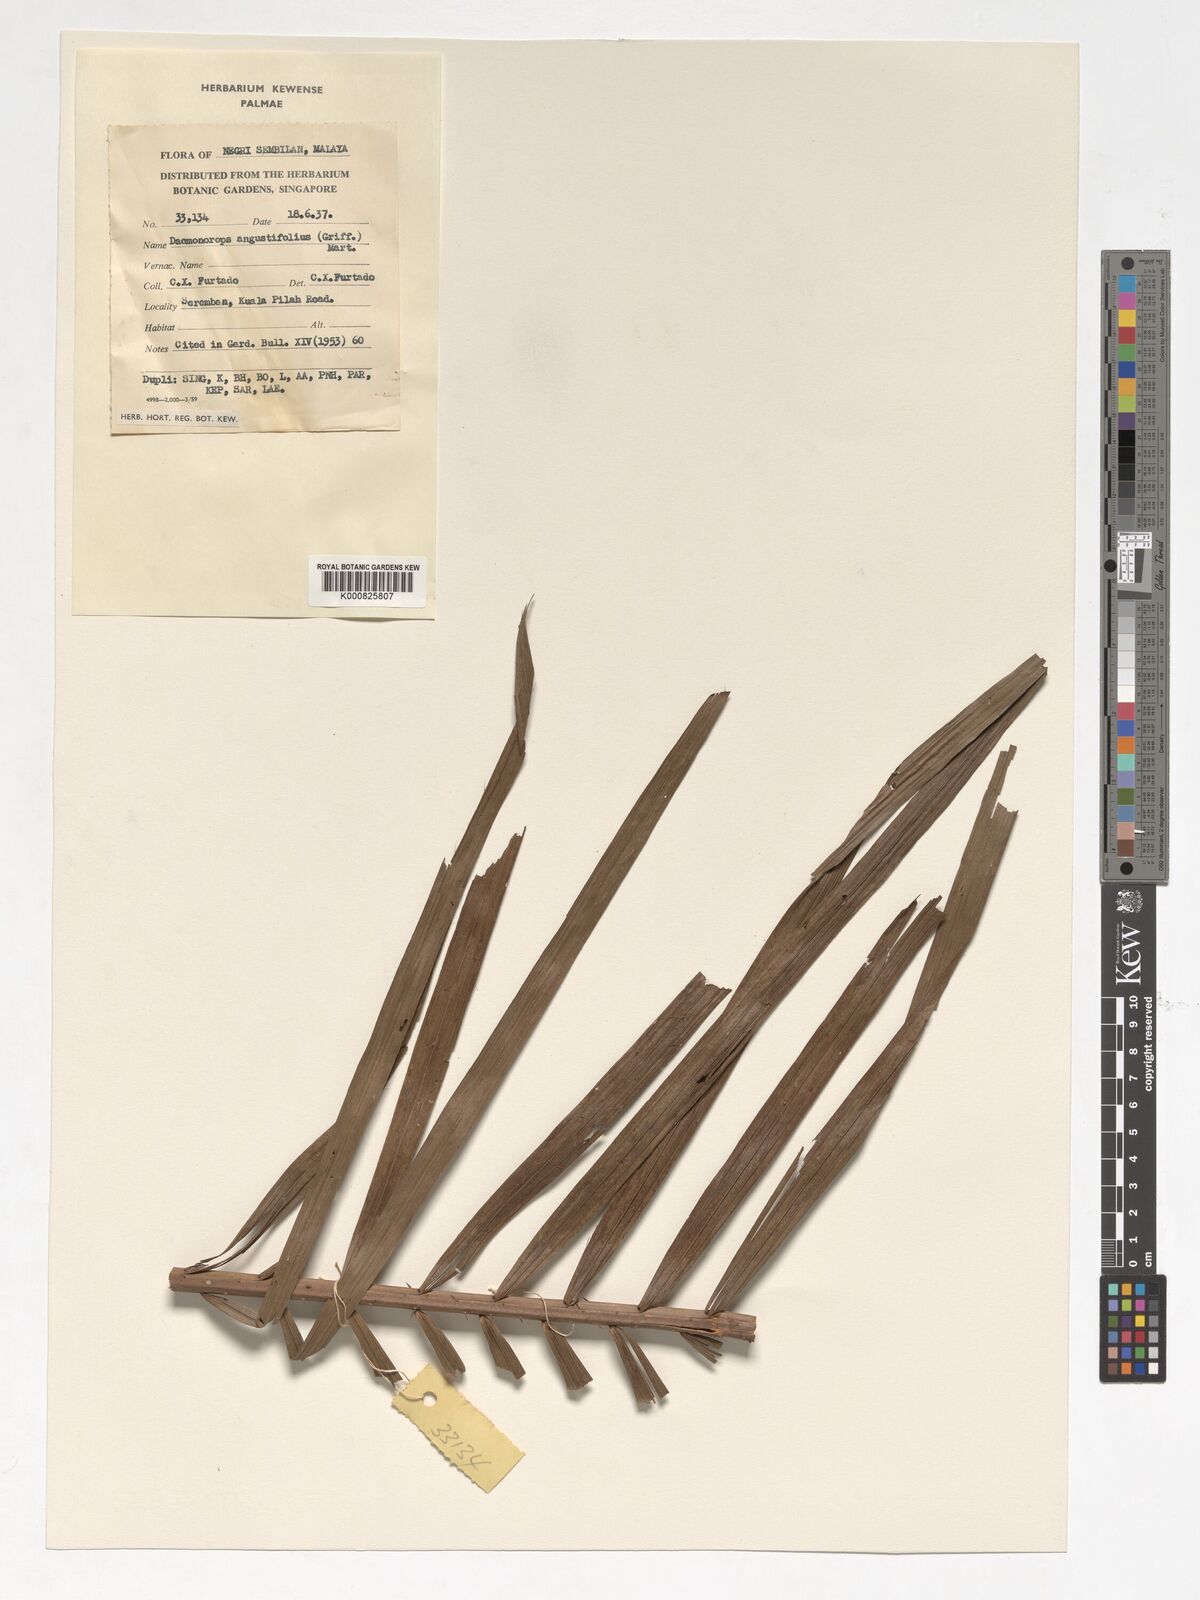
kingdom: Plantae
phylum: Tracheophyta
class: Liliopsida
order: Arecales
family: Arecaceae
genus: Calamus
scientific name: Calamus melanochaetes
